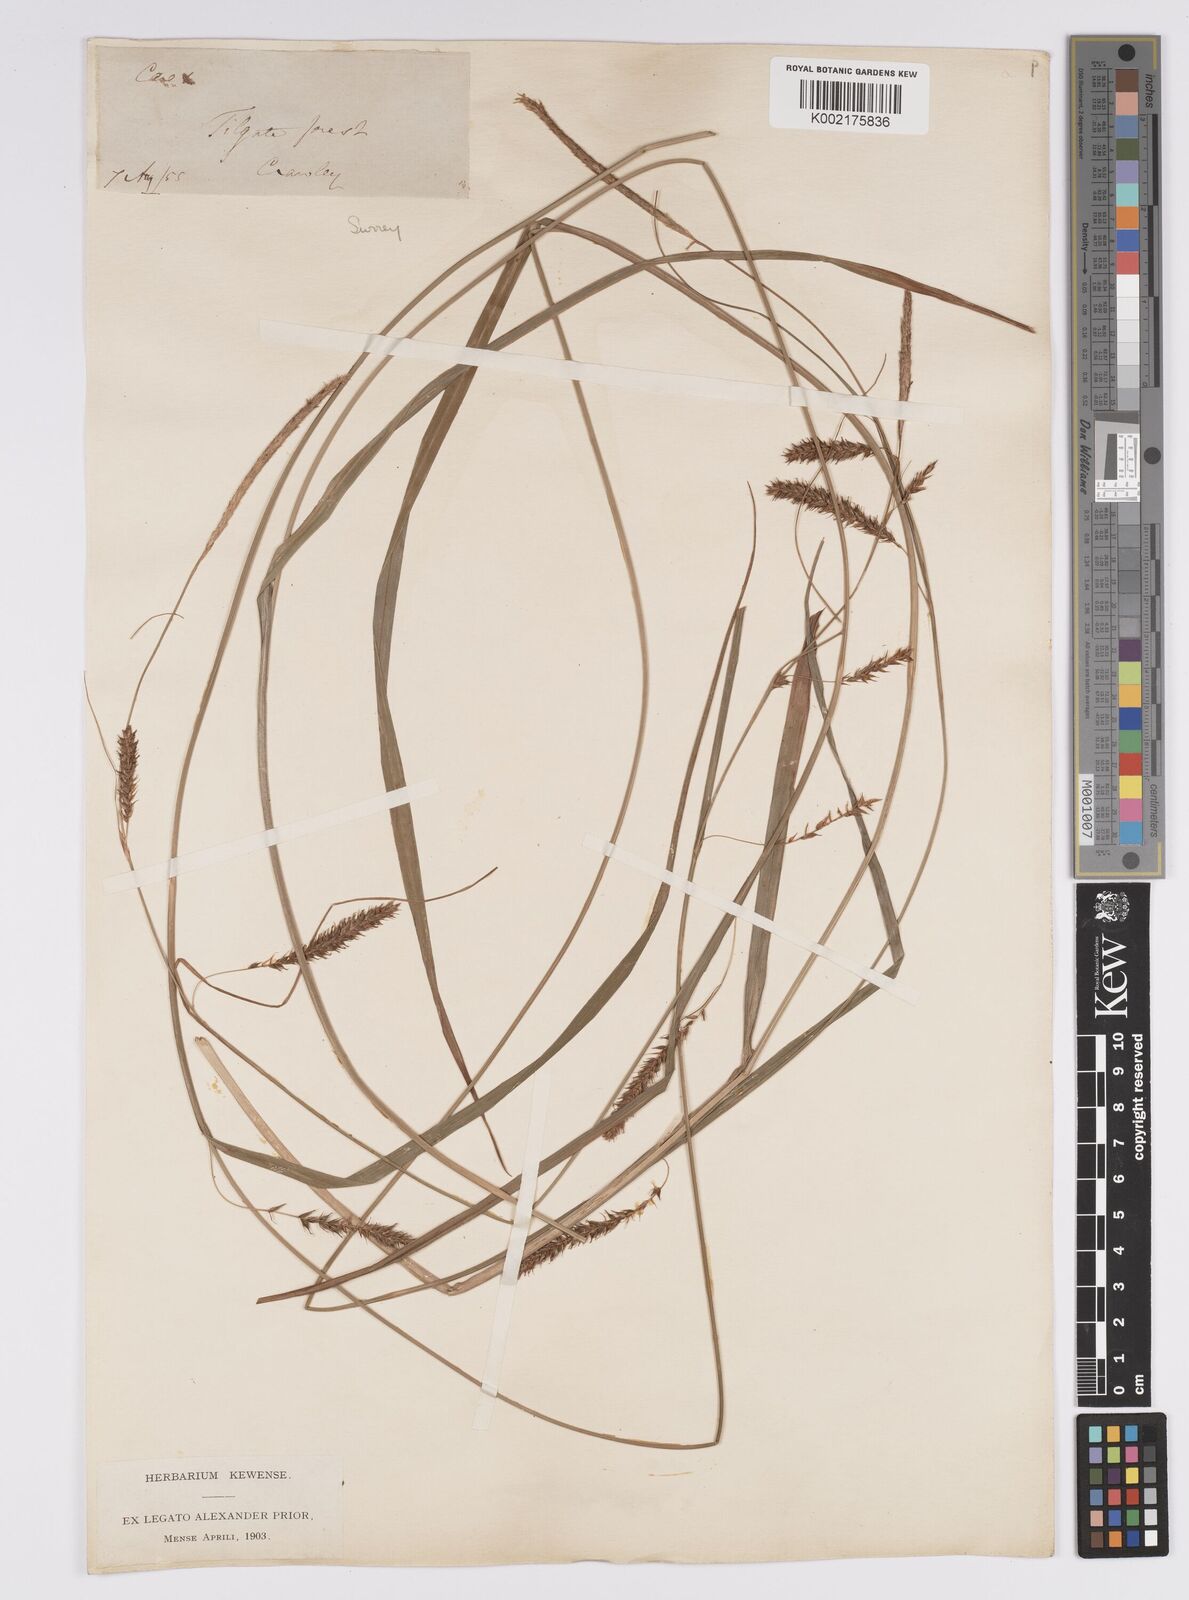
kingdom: Plantae
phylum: Tracheophyta
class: Liliopsida
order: Poales
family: Cyperaceae
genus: Carex
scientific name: Carex laevigata
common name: Smooth-stalked sedge
